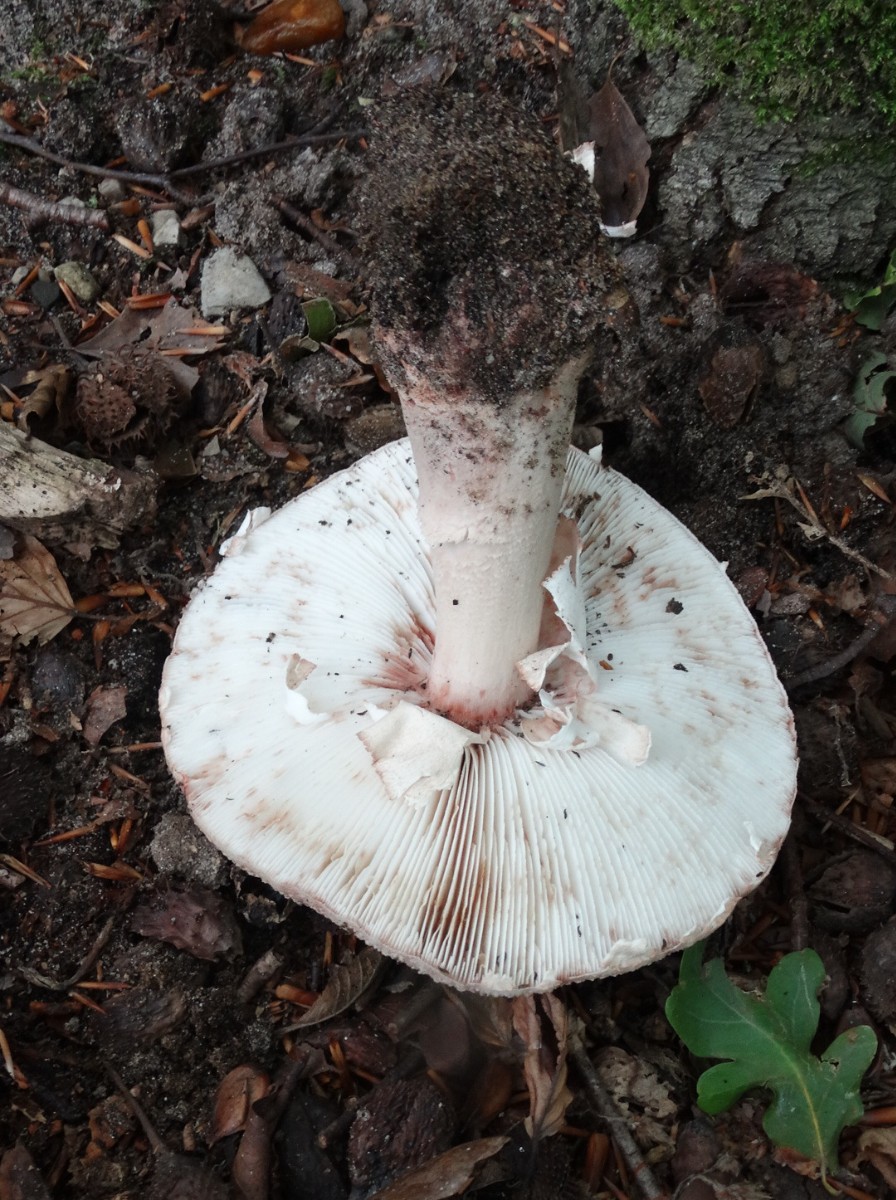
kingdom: Fungi
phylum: Basidiomycota
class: Agaricomycetes
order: Agaricales
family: Amanitaceae
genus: Amanita
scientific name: Amanita rubescens
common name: rødmende fluesvamp
